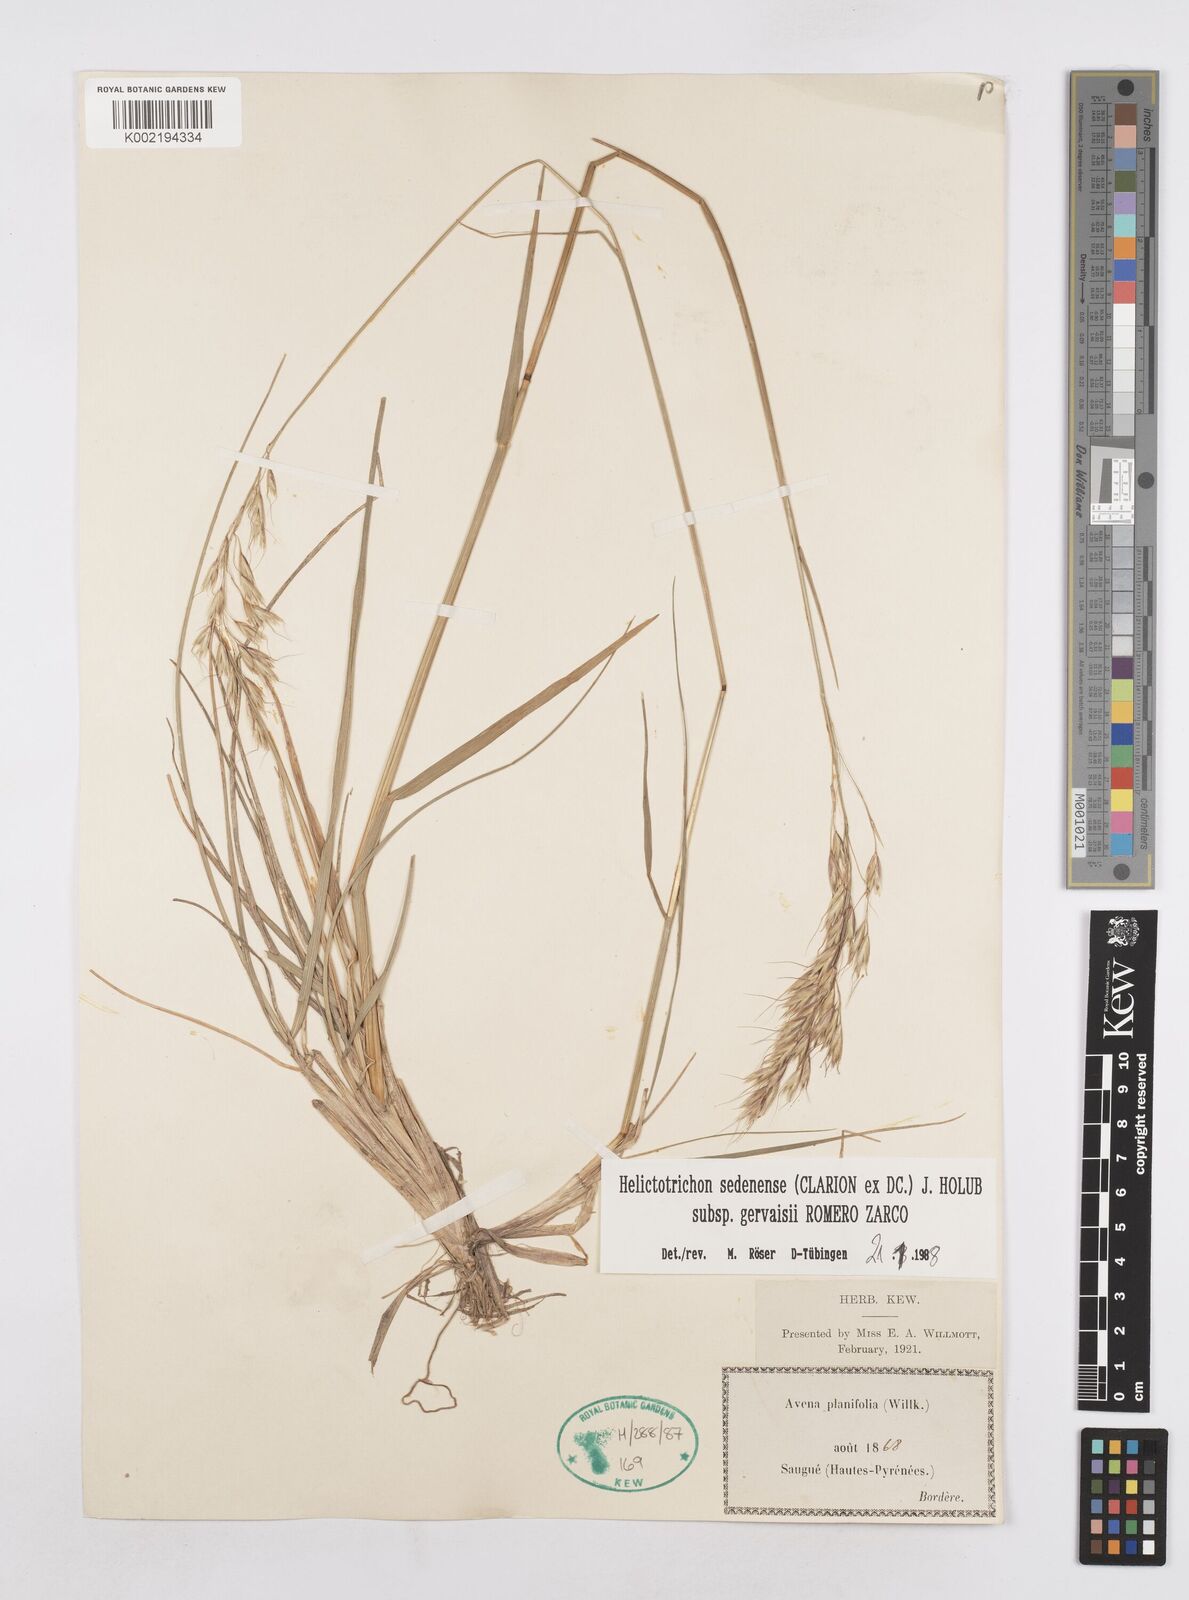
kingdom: Plantae
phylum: Tracheophyta
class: Liliopsida
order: Poales
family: Poaceae
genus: Helictotrichon
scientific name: Helictotrichon sedenense
